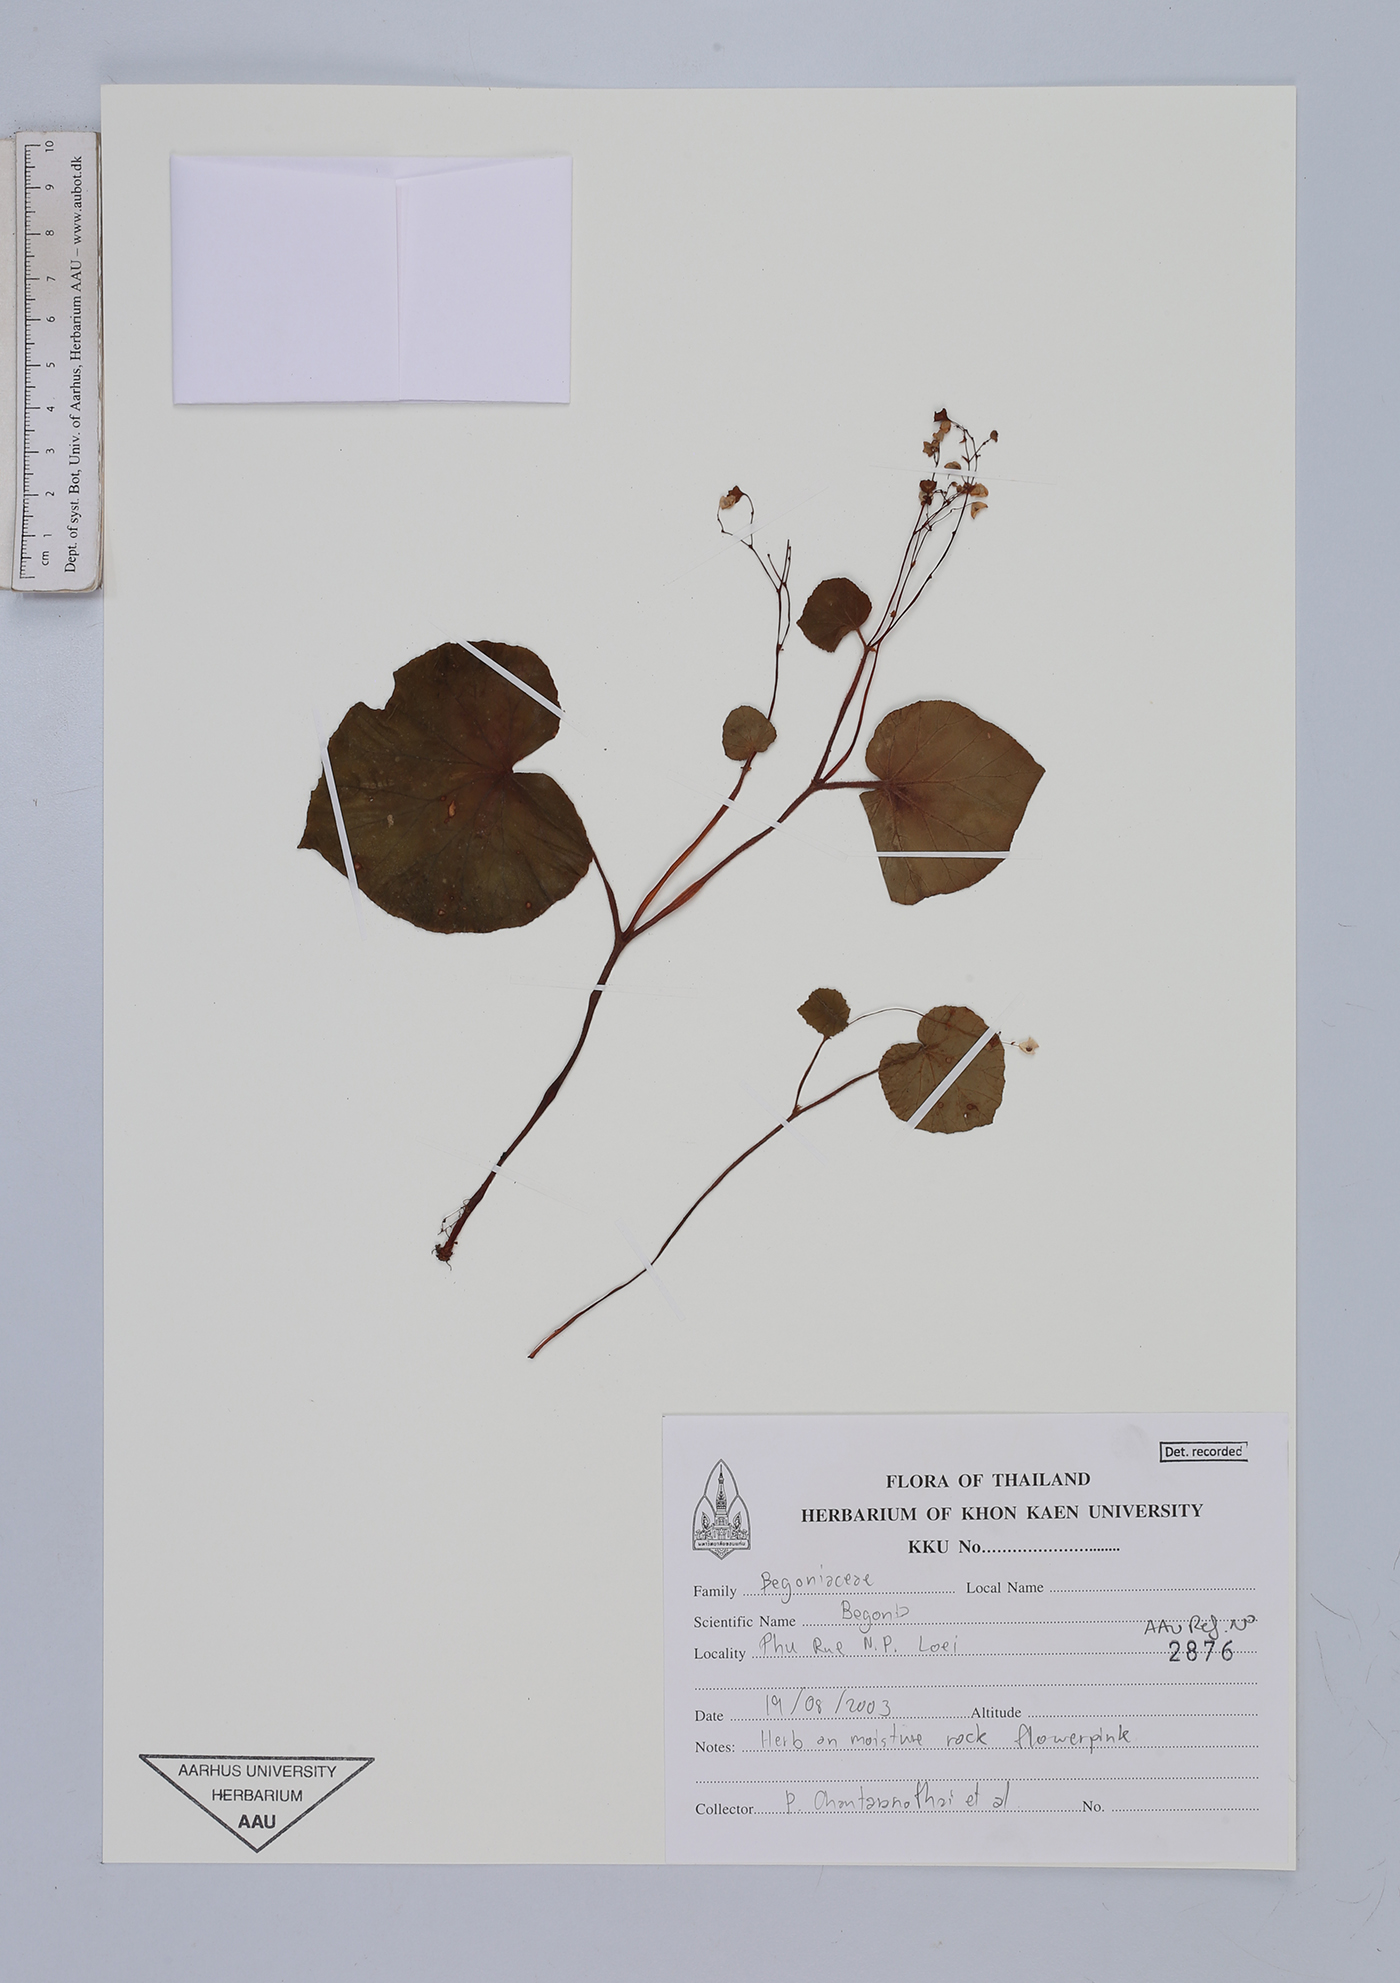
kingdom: Plantae
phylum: Tracheophyta
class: Magnoliopsida
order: Cucurbitales
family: Begoniaceae
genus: Begonia
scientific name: Begonia
